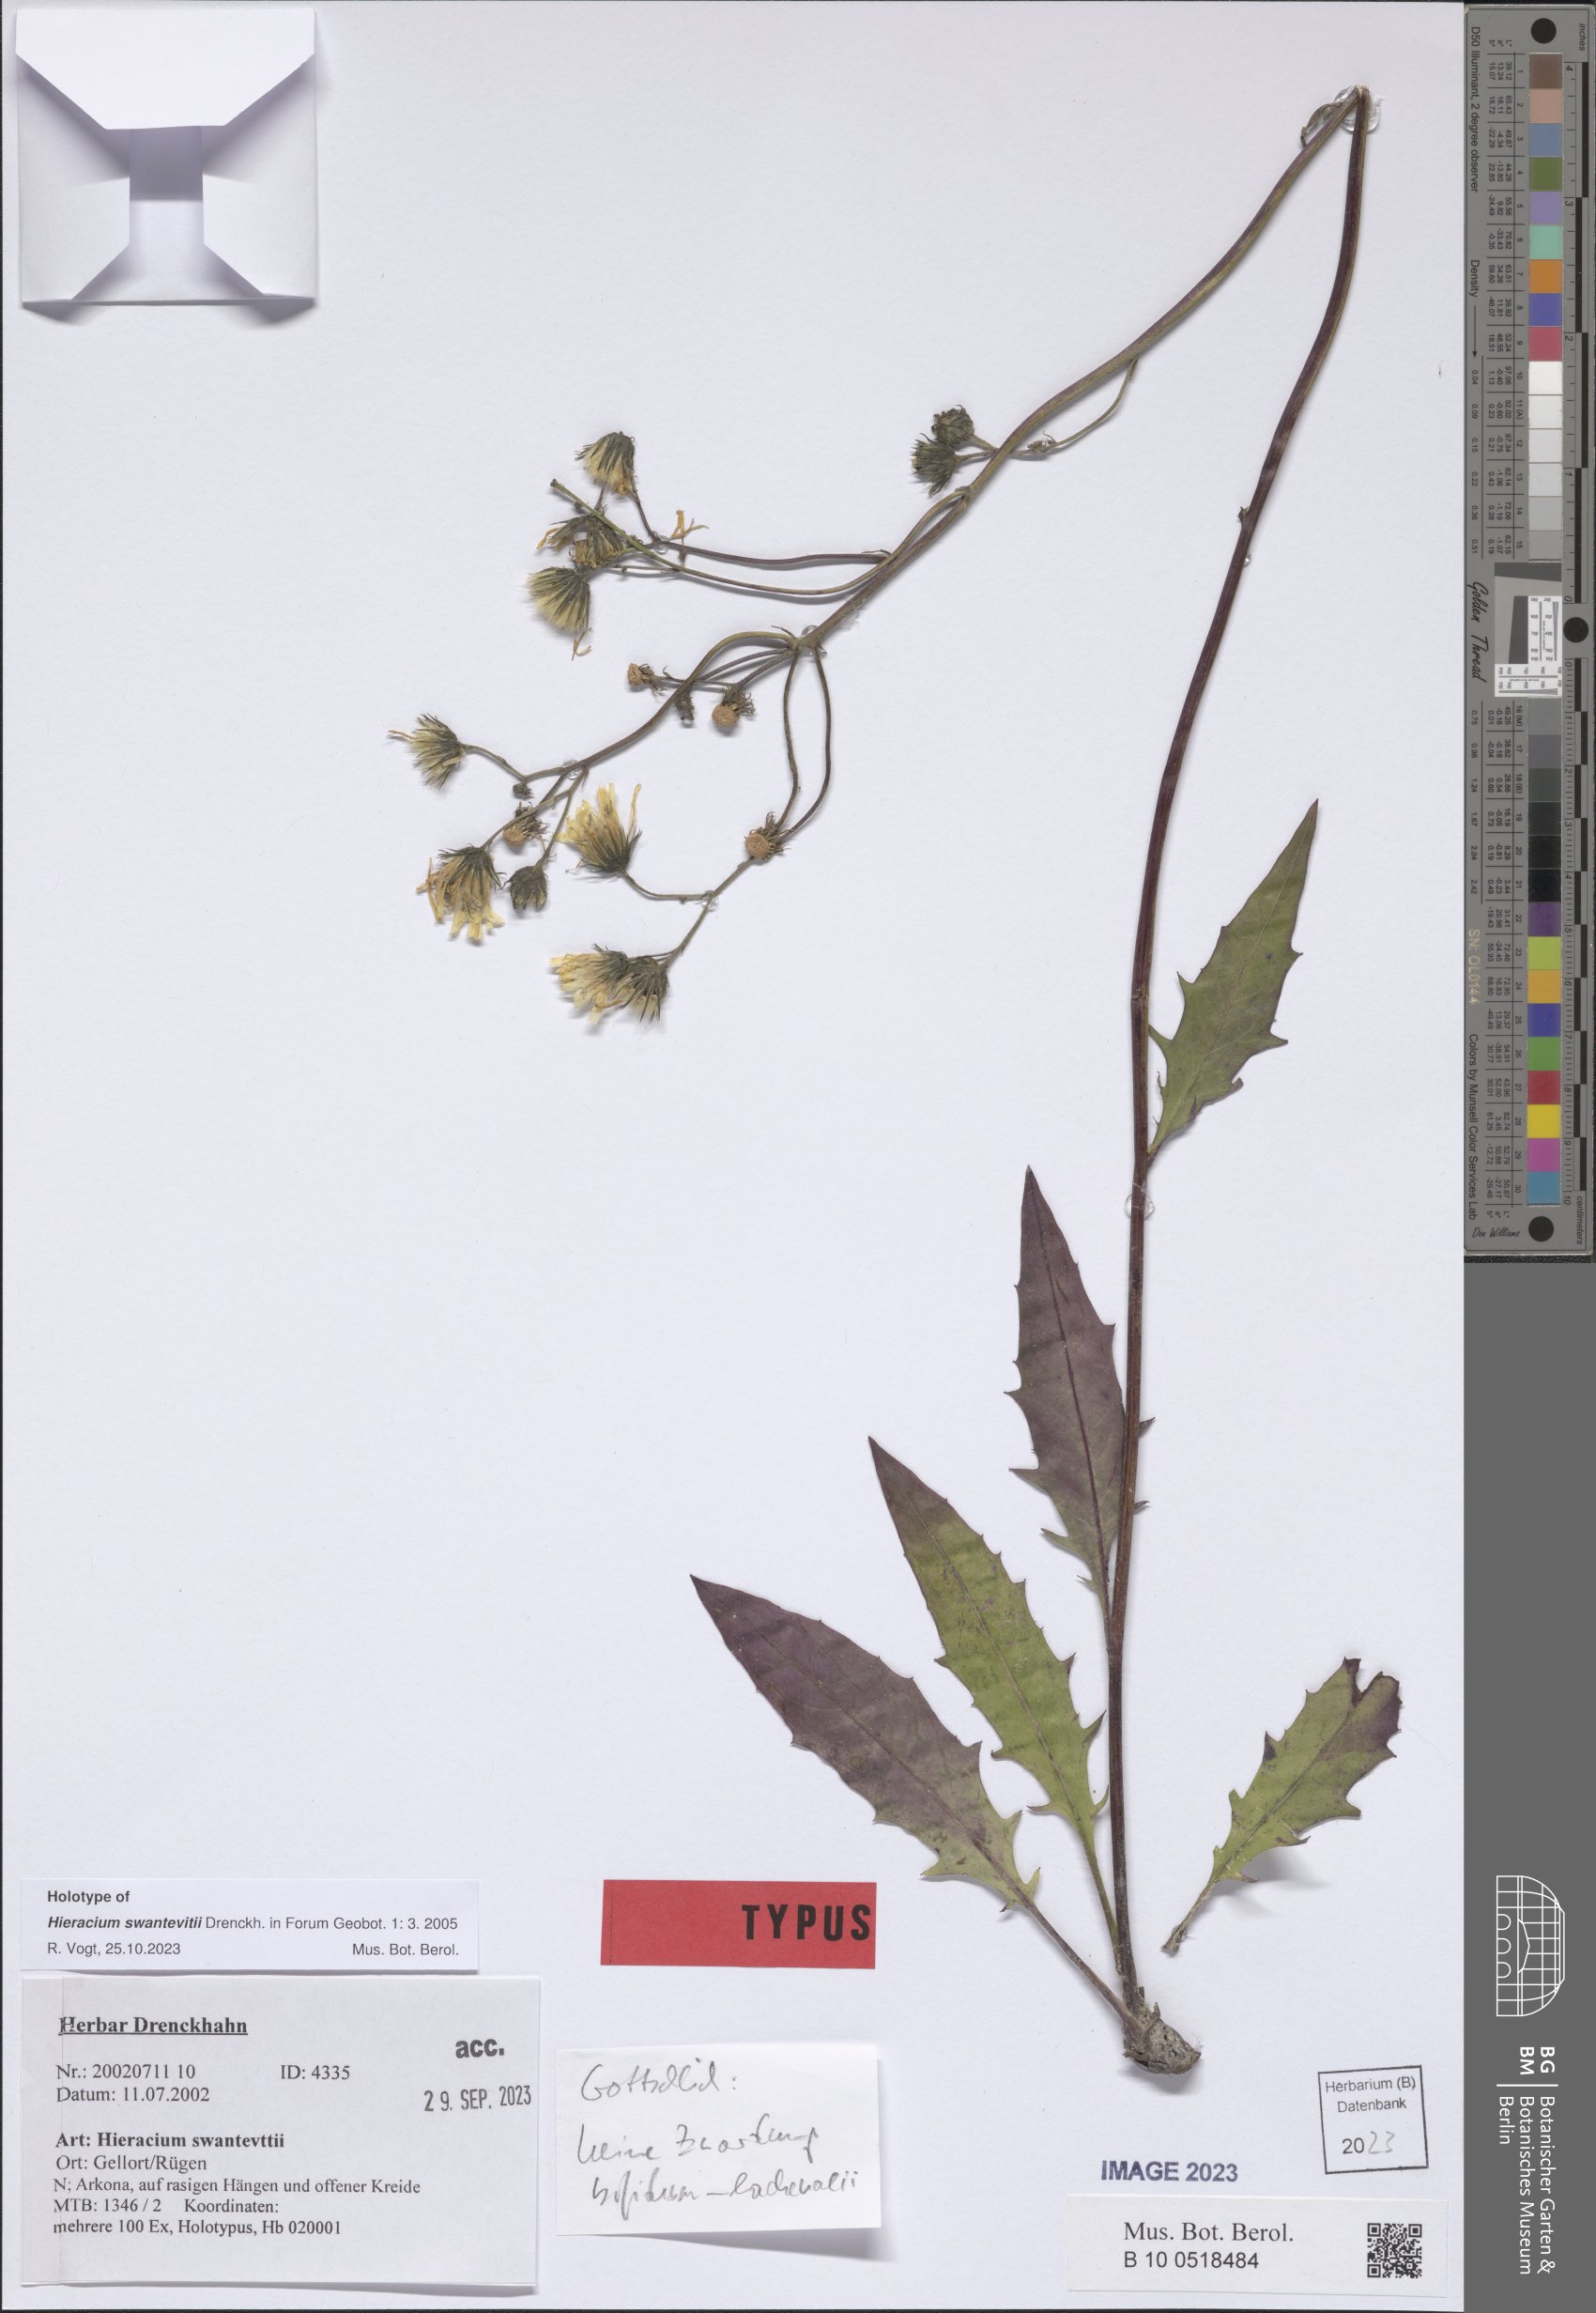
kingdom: Plantae
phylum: Tracheophyta
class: Magnoliopsida
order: Asterales
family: Asteraceae
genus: Hieracium
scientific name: Hieracium swantevitii
